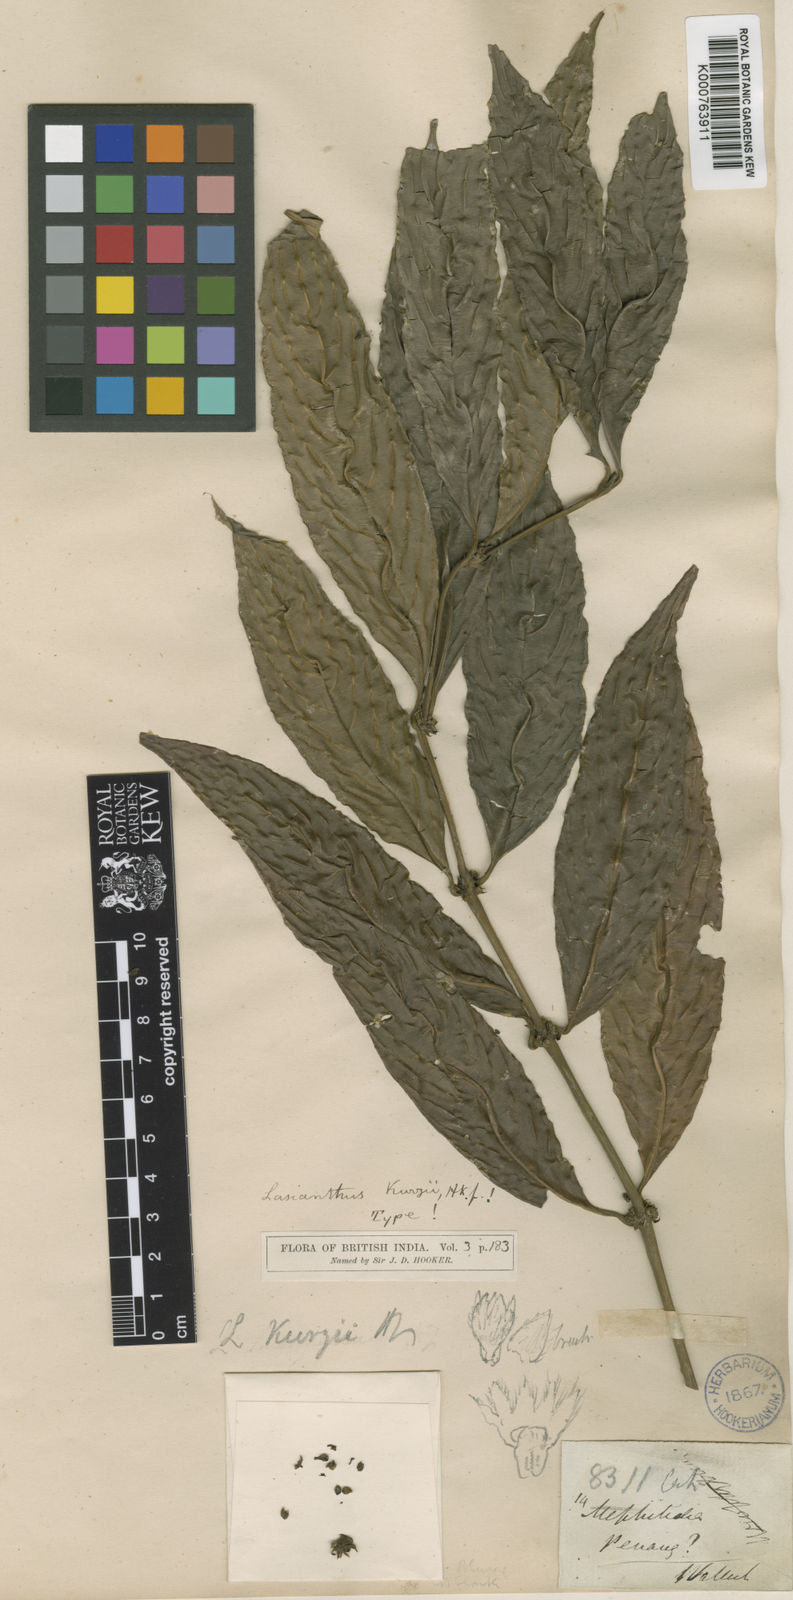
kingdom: Plantae
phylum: Tracheophyta
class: Magnoliopsida
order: Gentianales
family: Rubiaceae
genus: Lasianthus
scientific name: Lasianthus
